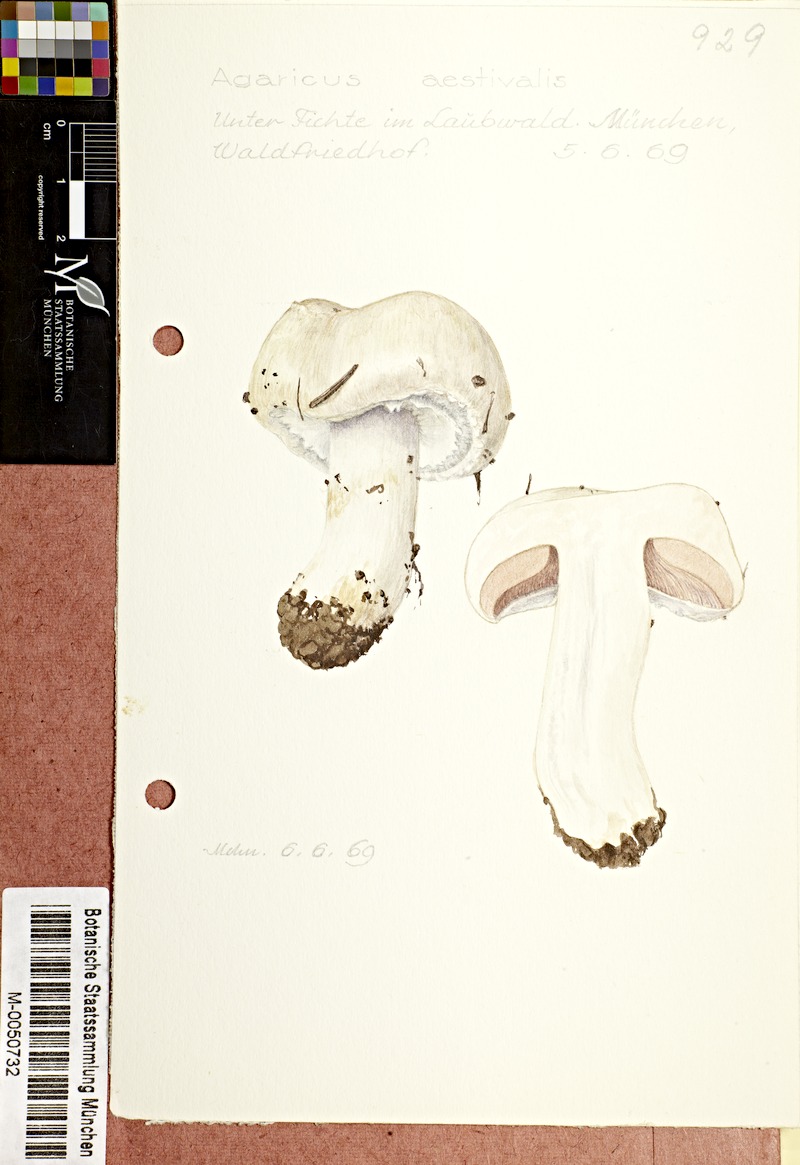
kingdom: Fungi
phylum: Basidiomycota
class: Agaricomycetes
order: Agaricales
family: Agaricaceae
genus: Agaricus
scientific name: Agaricus altipes
